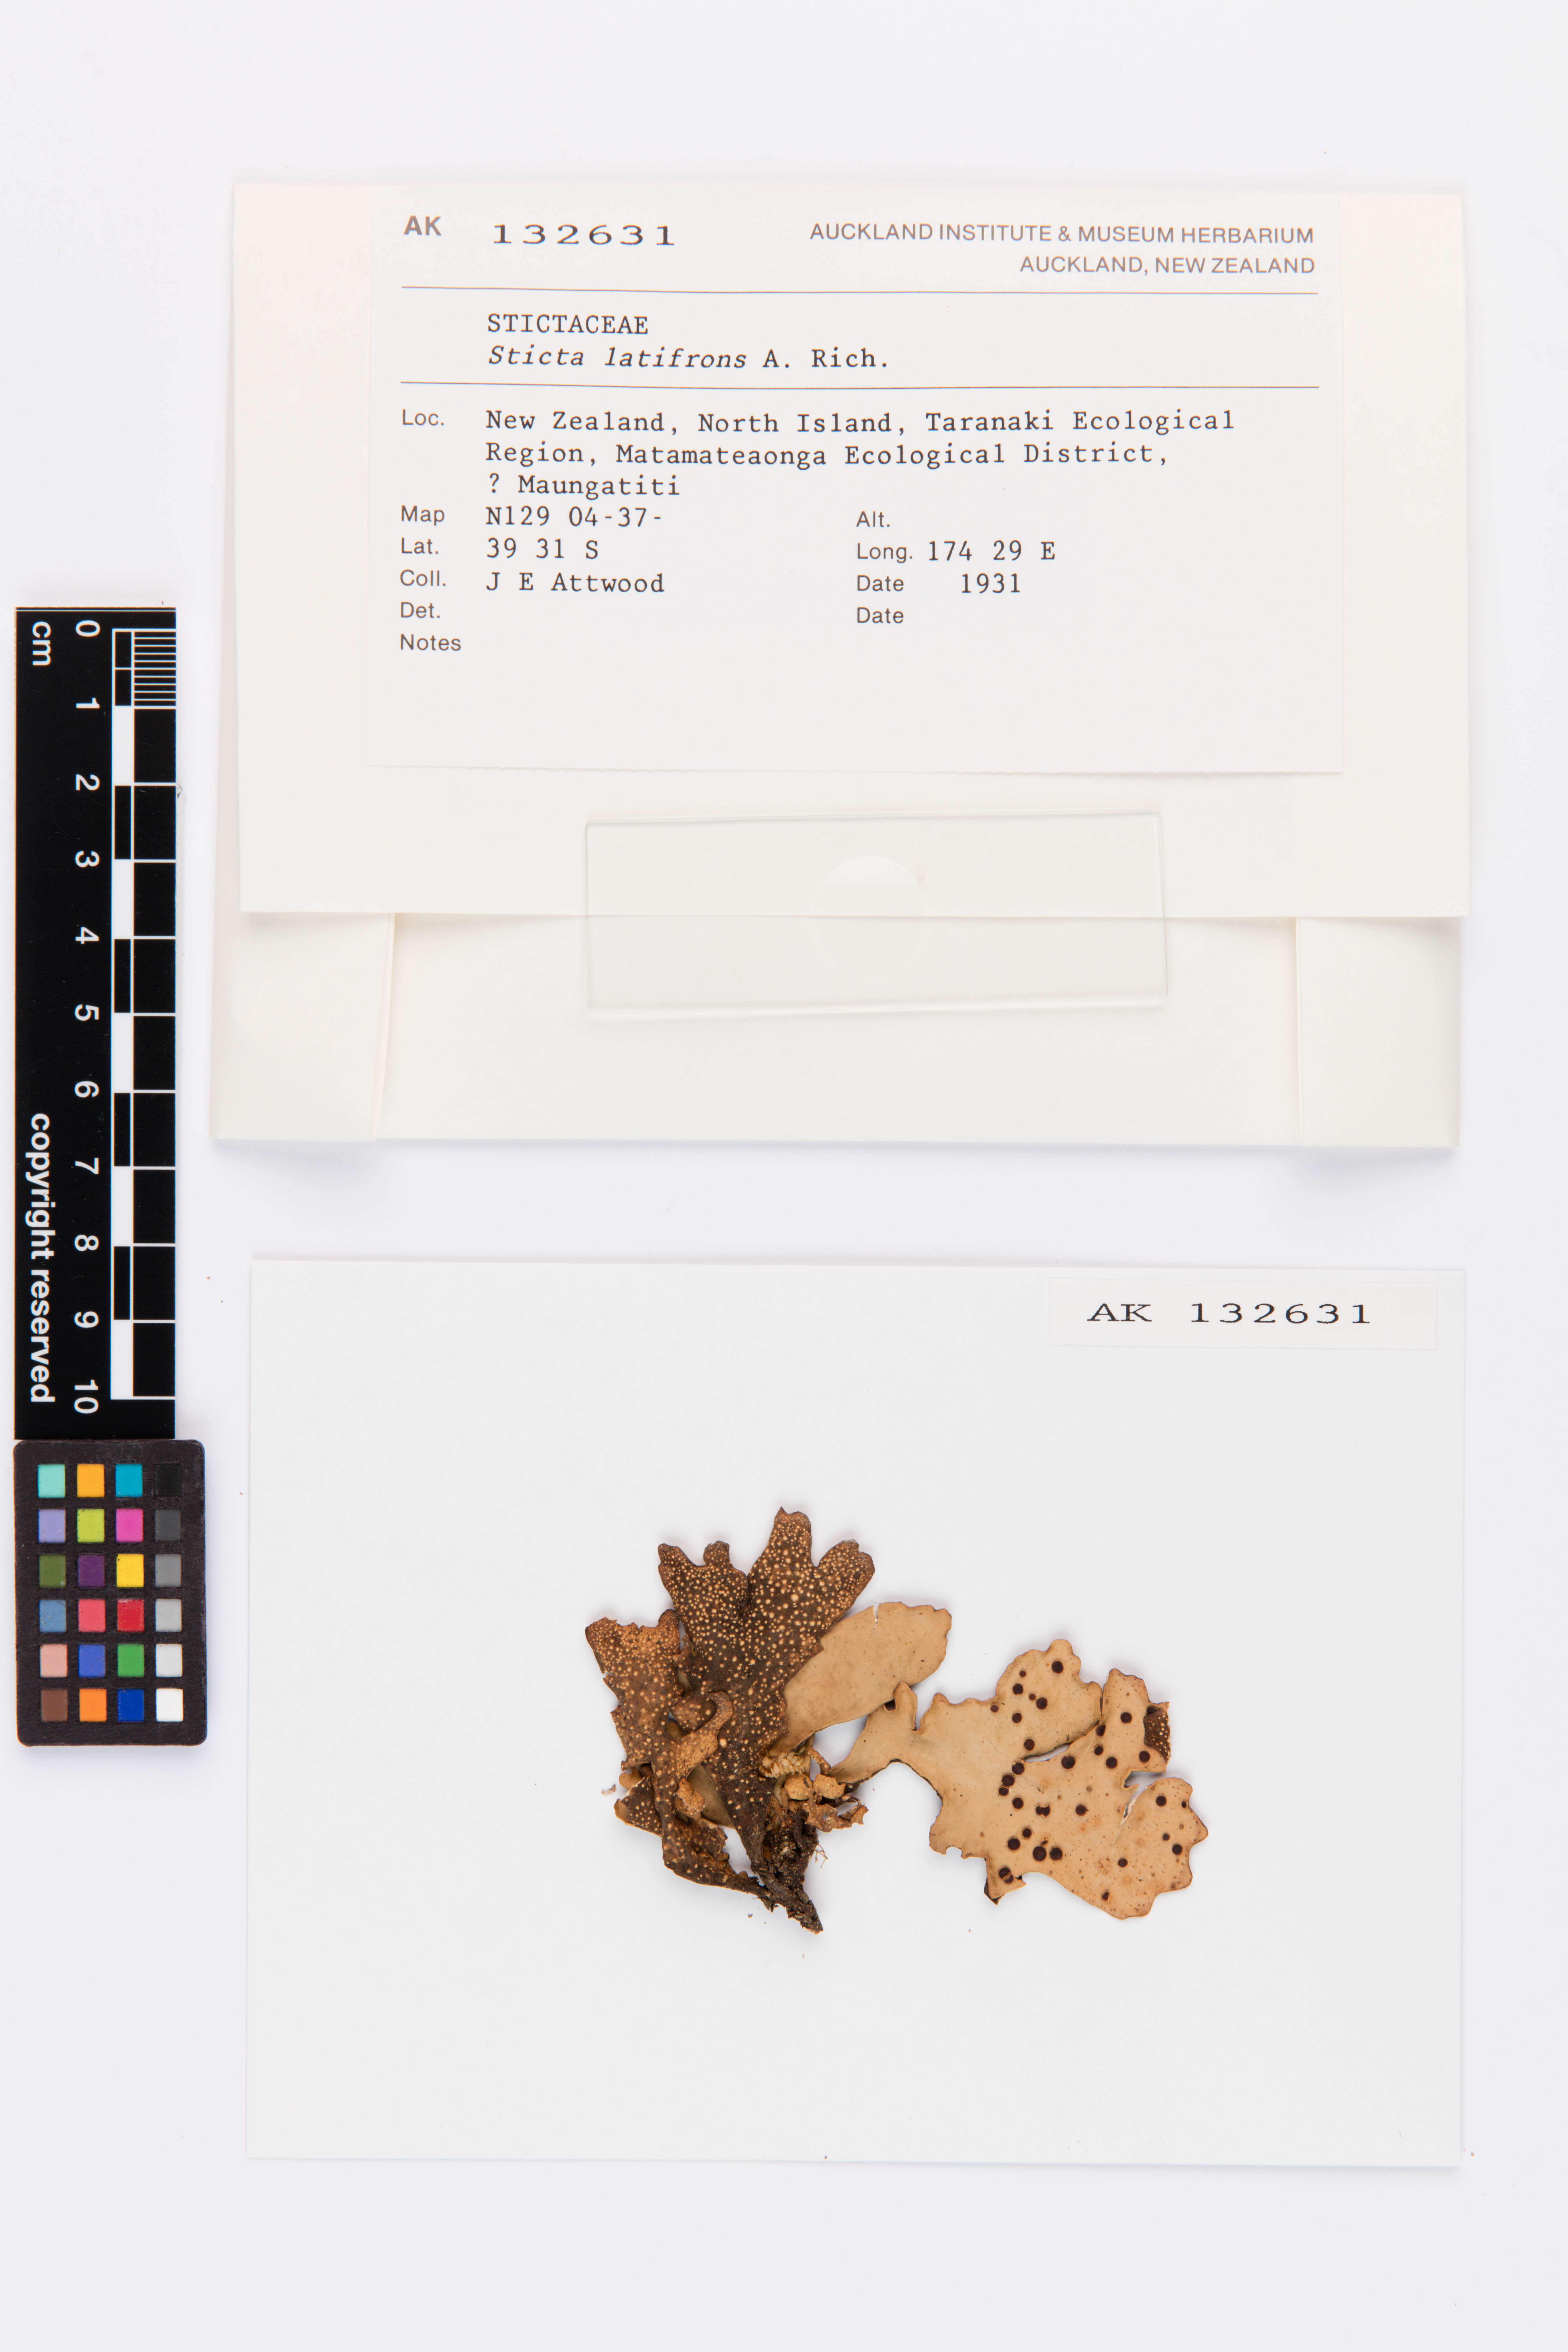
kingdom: Fungi
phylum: Ascomycota
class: Lecanoromycetes
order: Peltigerales
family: Lobariaceae
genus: Sticta
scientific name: Sticta latifrons
